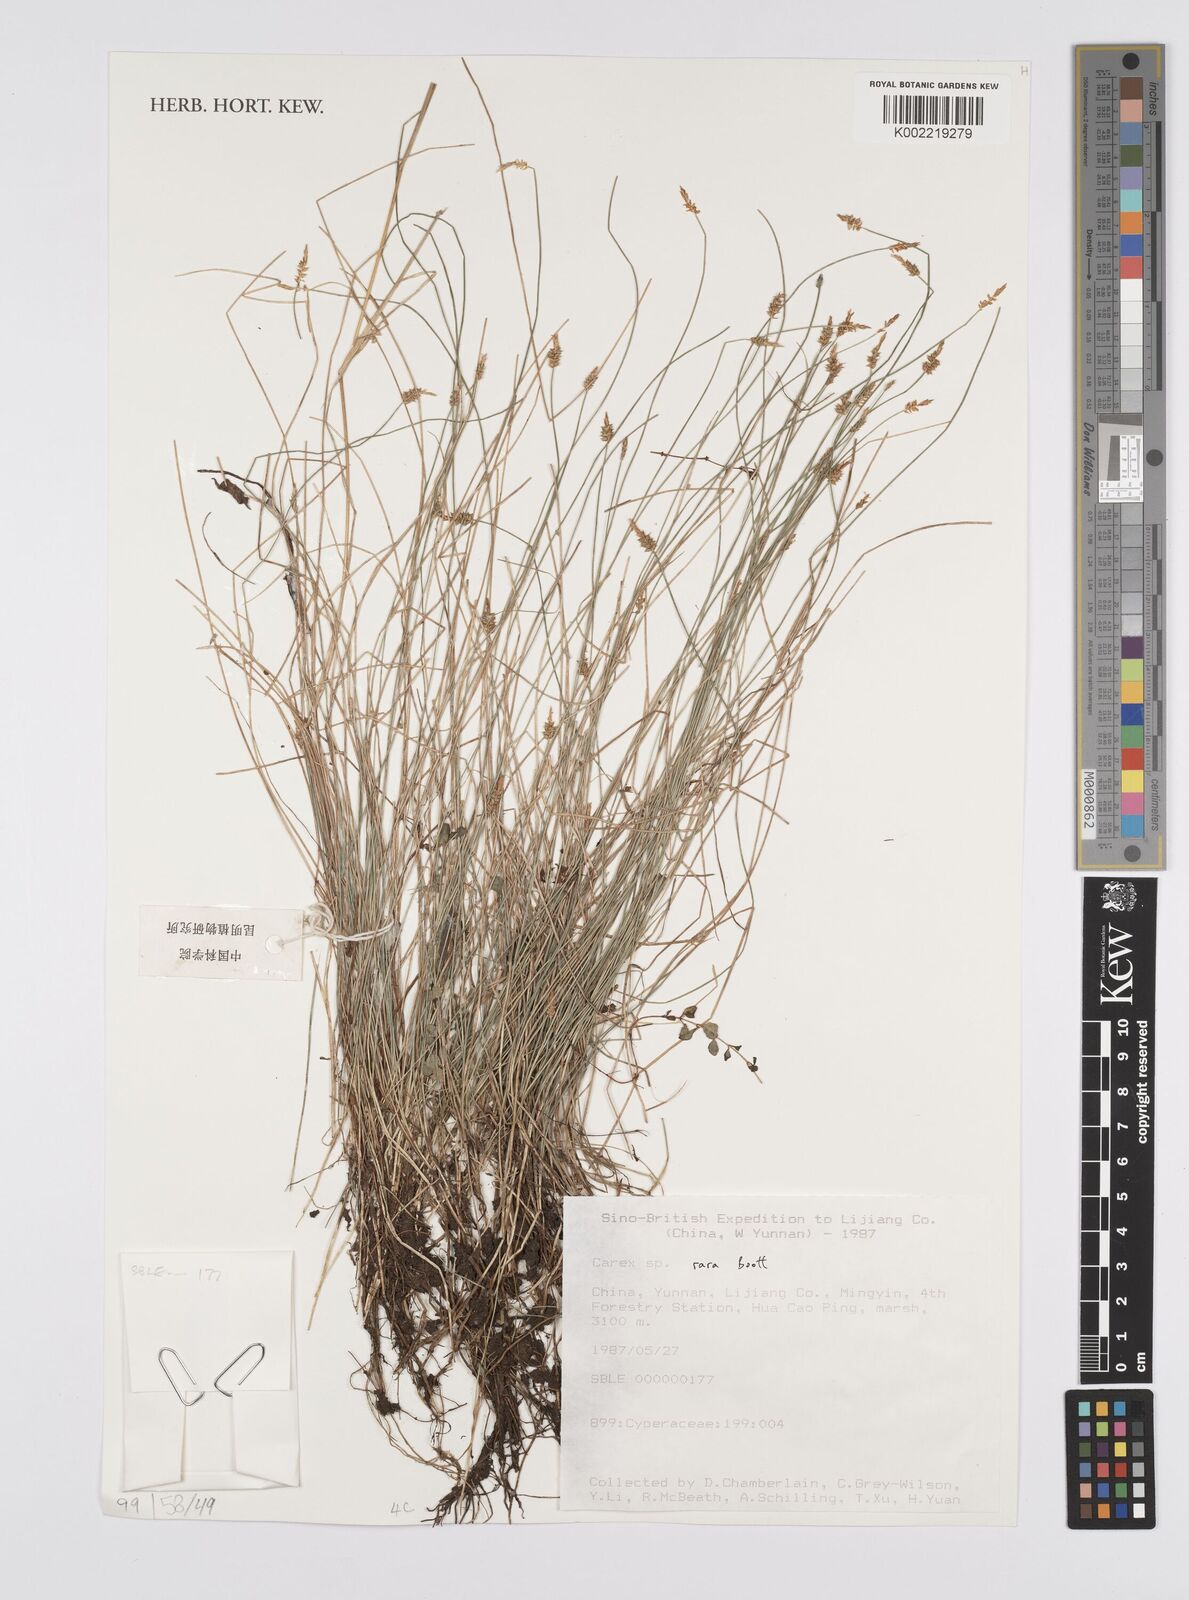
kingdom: Plantae
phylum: Tracheophyta
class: Liliopsida
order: Poales
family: Cyperaceae
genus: Carex
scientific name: Carex rara
